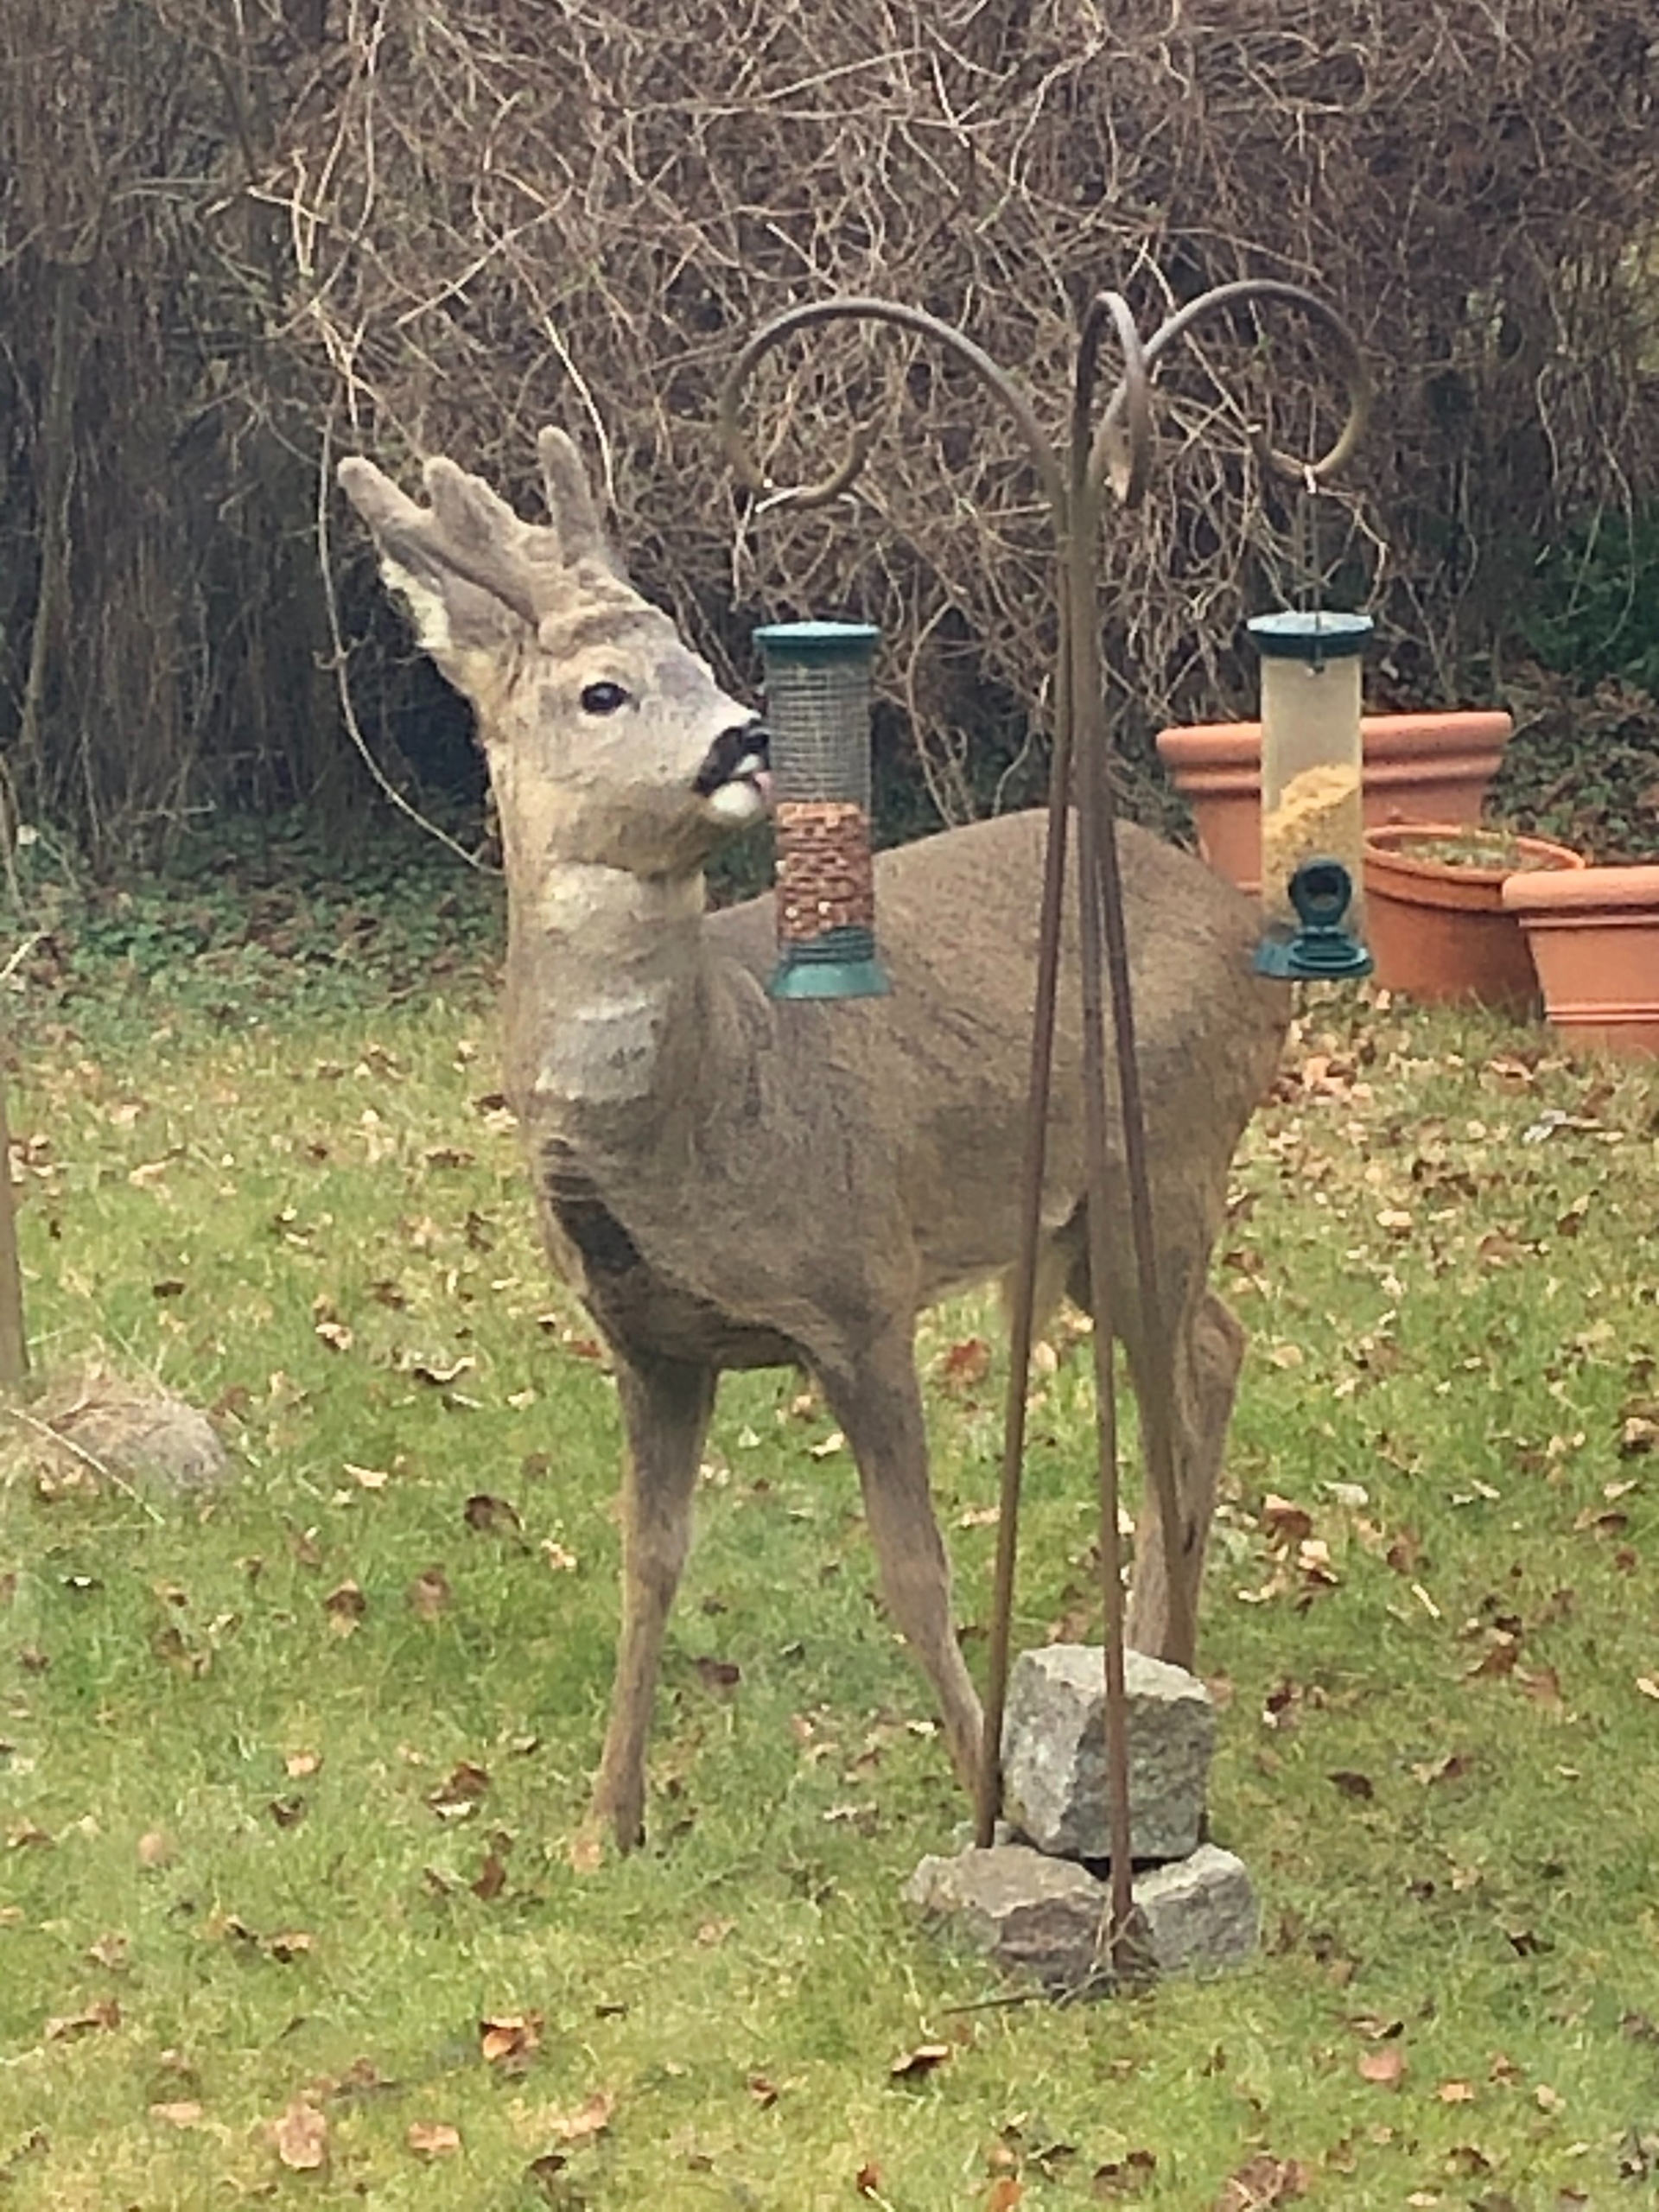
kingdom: Animalia
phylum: Chordata
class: Mammalia
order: Artiodactyla
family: Cervidae
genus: Capreolus
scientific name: Capreolus capreolus
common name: Rådyr
